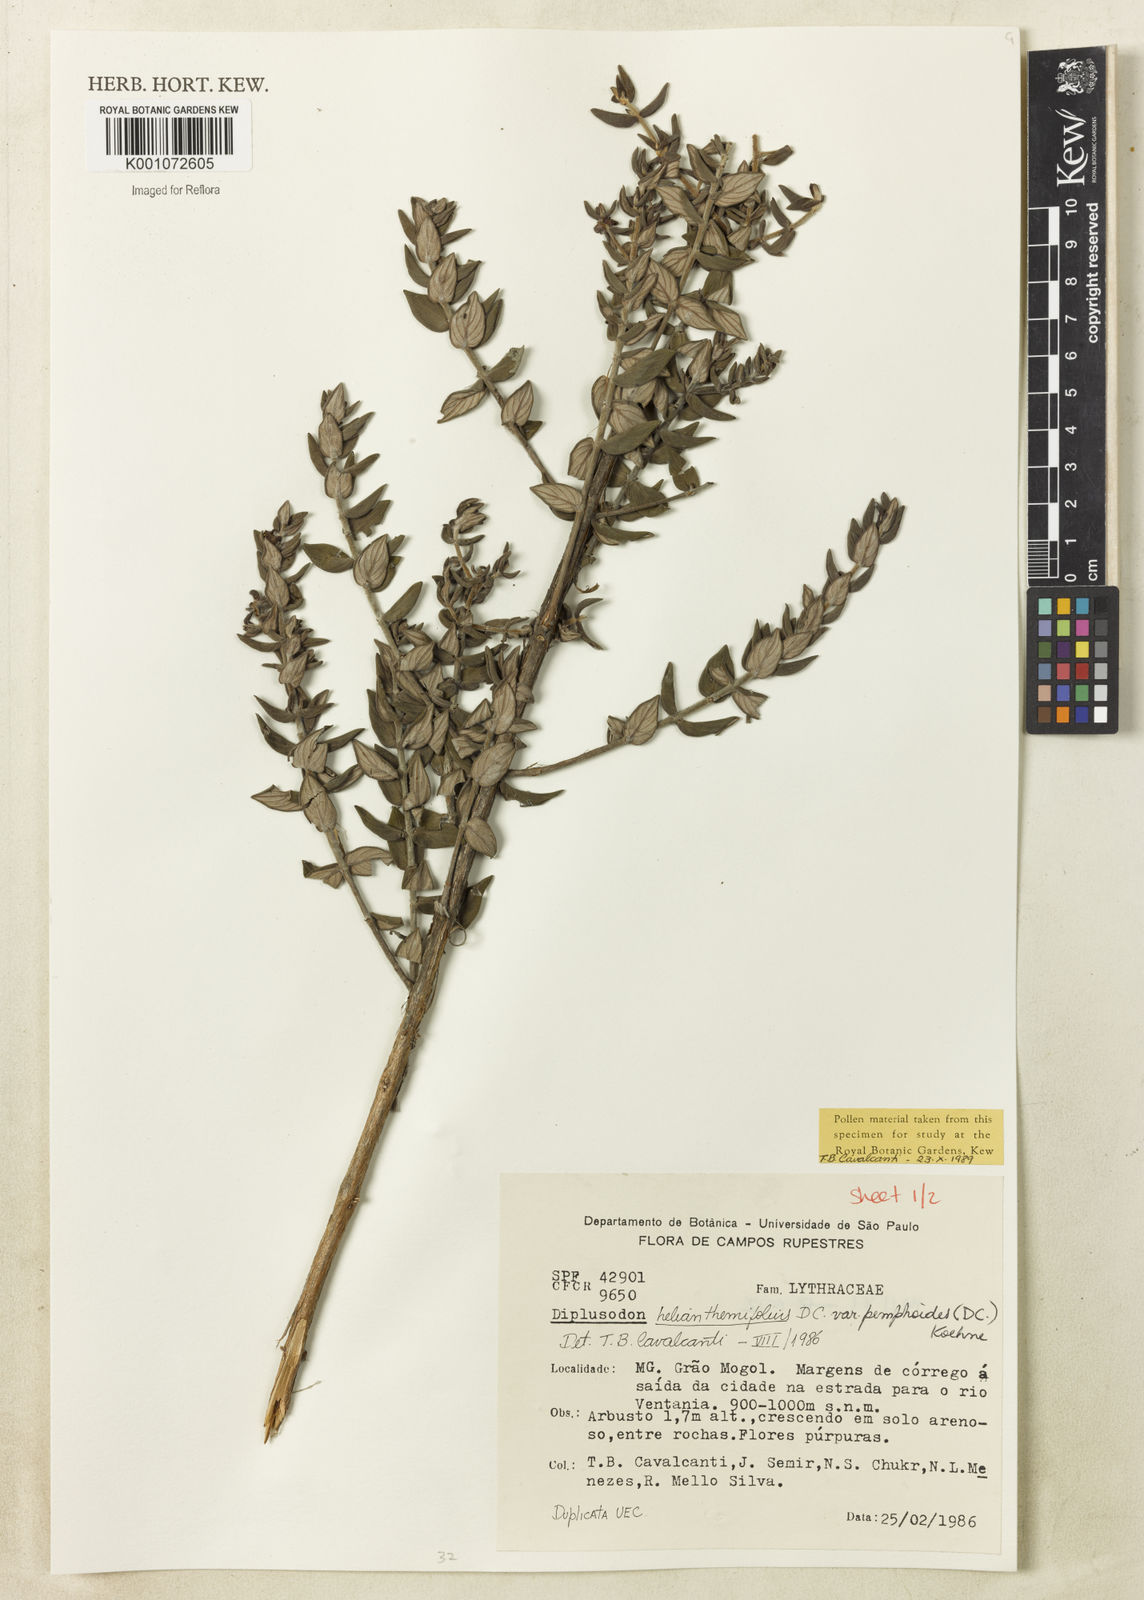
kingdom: Plantae
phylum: Tracheophyta
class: Magnoliopsida
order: Myrtales
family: Lythraceae
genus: Diplusodon
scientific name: Diplusodon helianthemifolius
